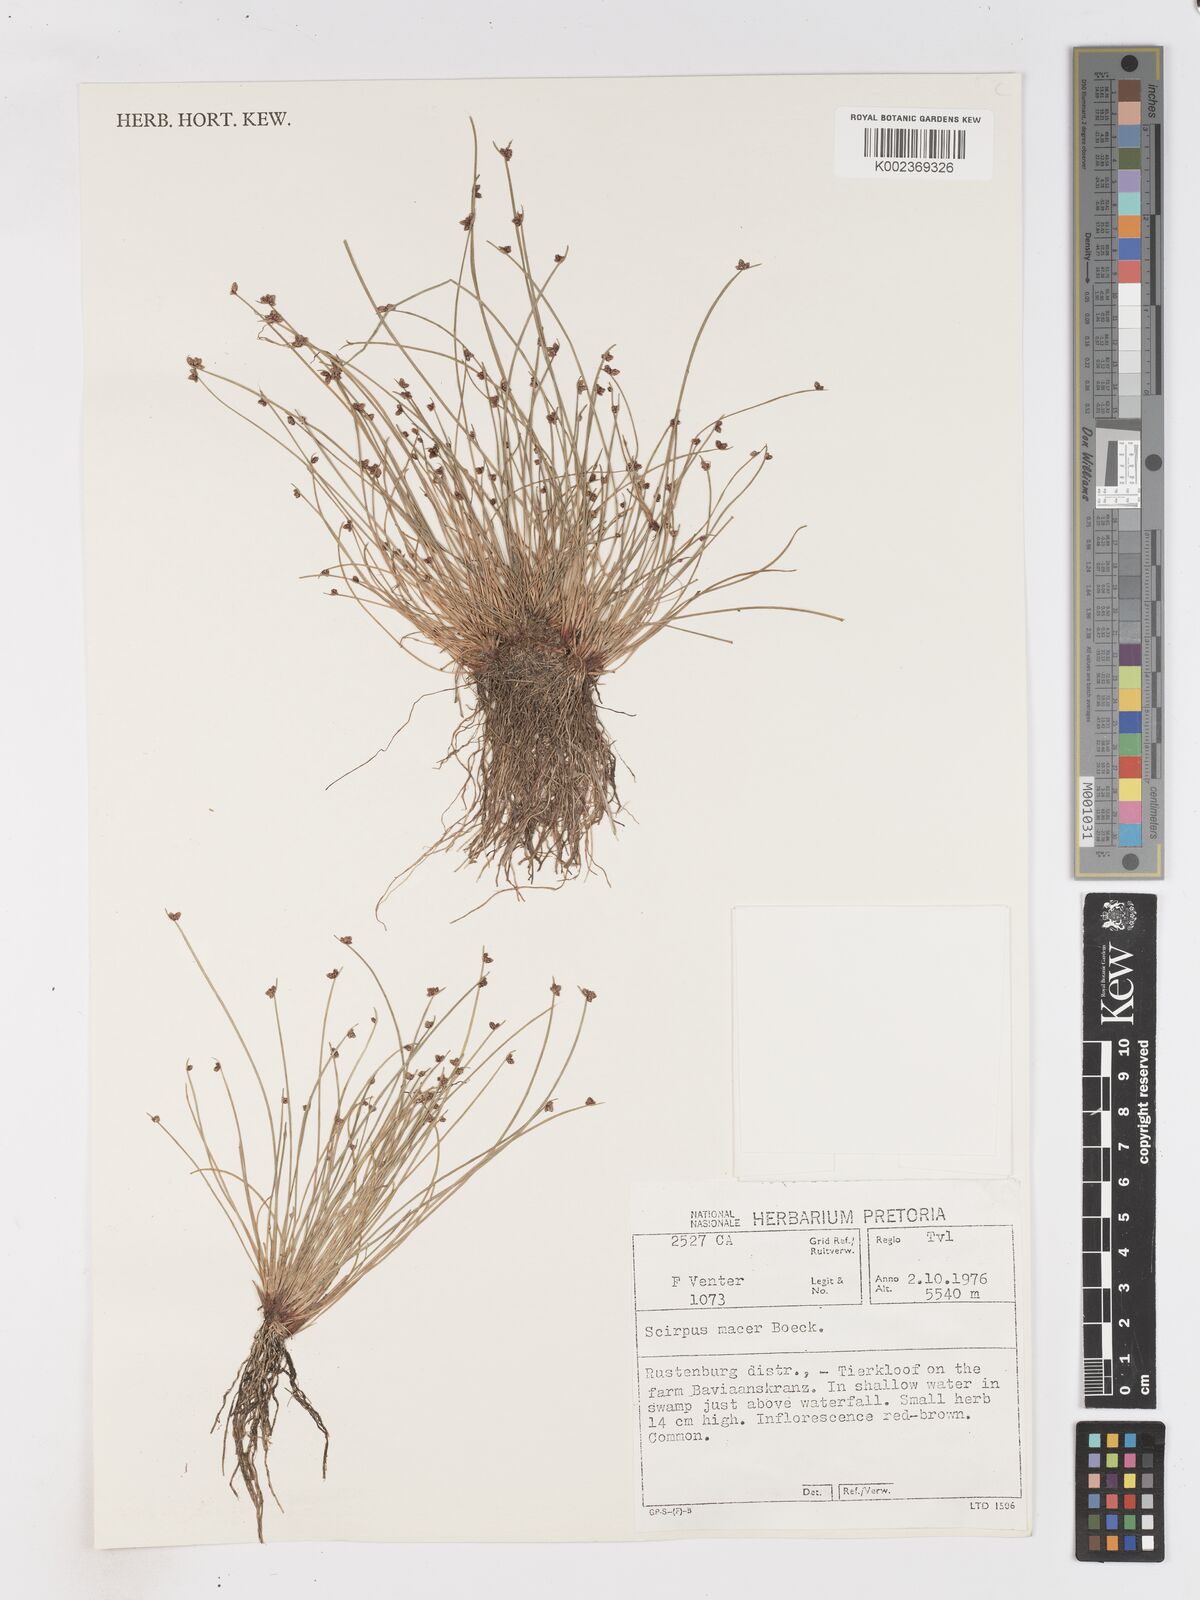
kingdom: Plantae
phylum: Tracheophyta
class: Liliopsida
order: Poales
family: Cyperaceae
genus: Isolepis
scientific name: Isolepis costata
